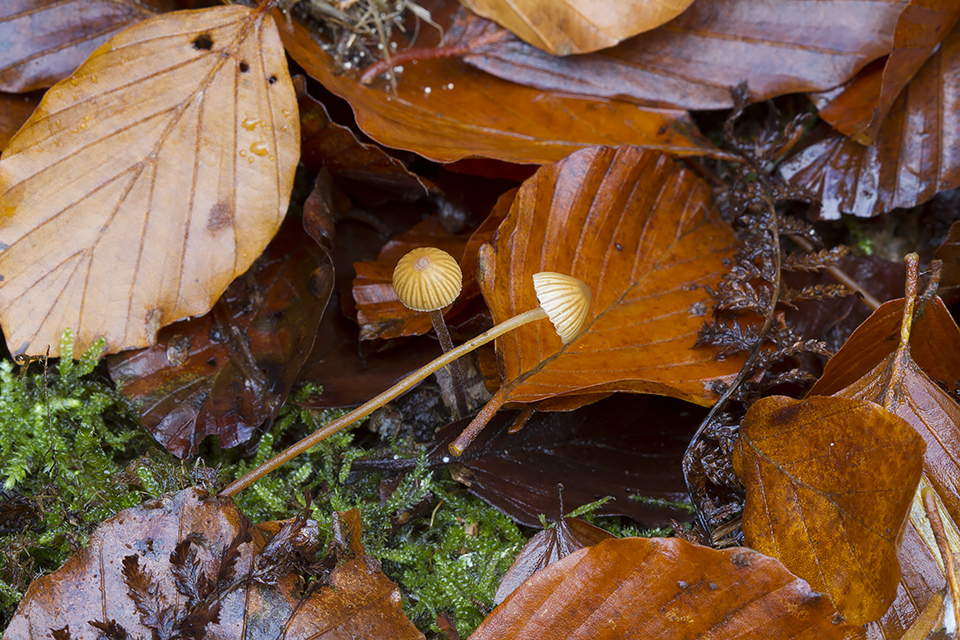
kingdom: Fungi
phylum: Basidiomycota
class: Agaricomycetes
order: Agaricales
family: Hymenogastraceae
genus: Galerina
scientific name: Galerina vittiformis
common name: Hairy leg bell
